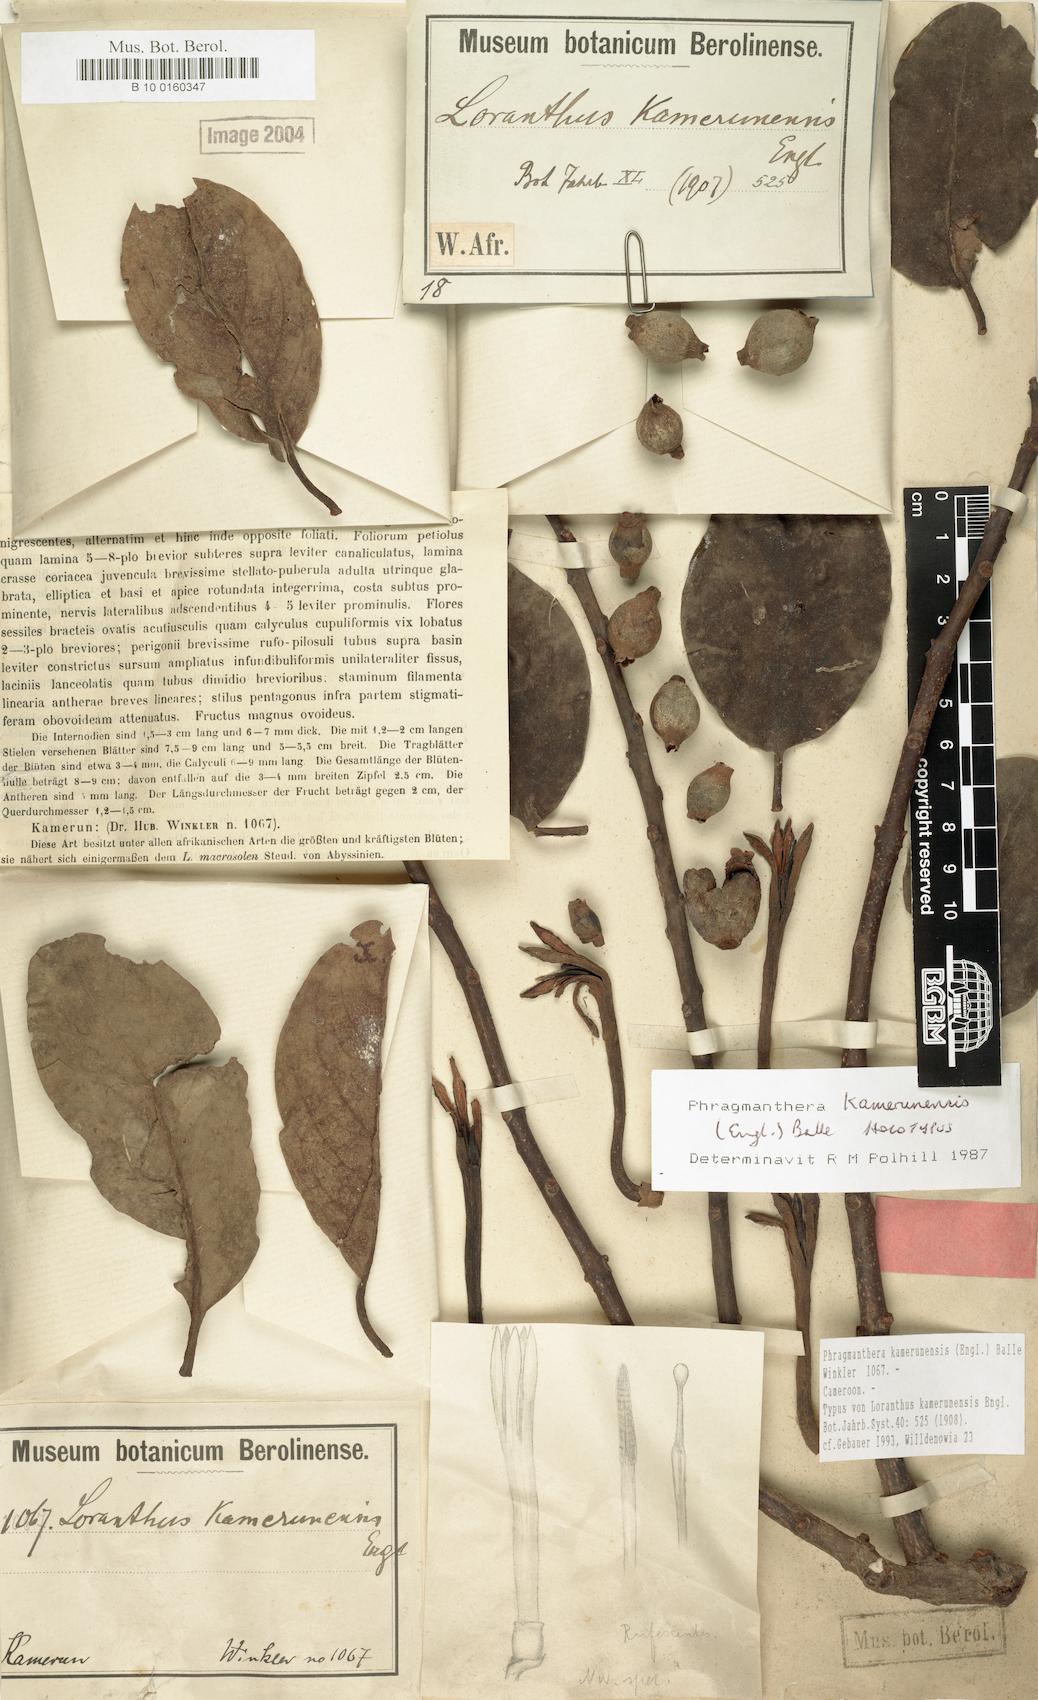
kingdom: Plantae
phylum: Tracheophyta
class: Magnoliopsida
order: Santalales
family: Loranthaceae
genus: Phragmanthera
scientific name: Phragmanthera kamerunensis
